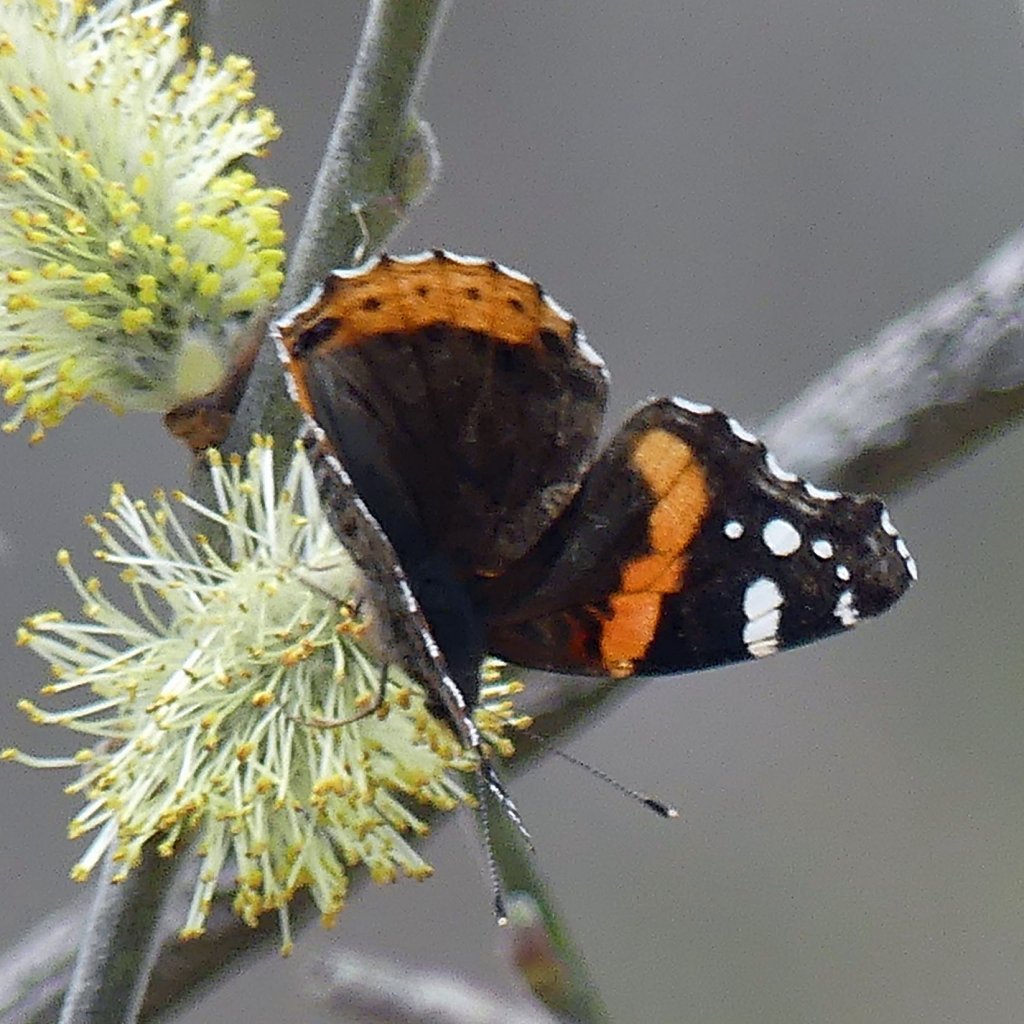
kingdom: Animalia
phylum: Arthropoda
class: Insecta
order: Lepidoptera
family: Nymphalidae
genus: Vanessa
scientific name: Vanessa atalanta
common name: Red Admiral
